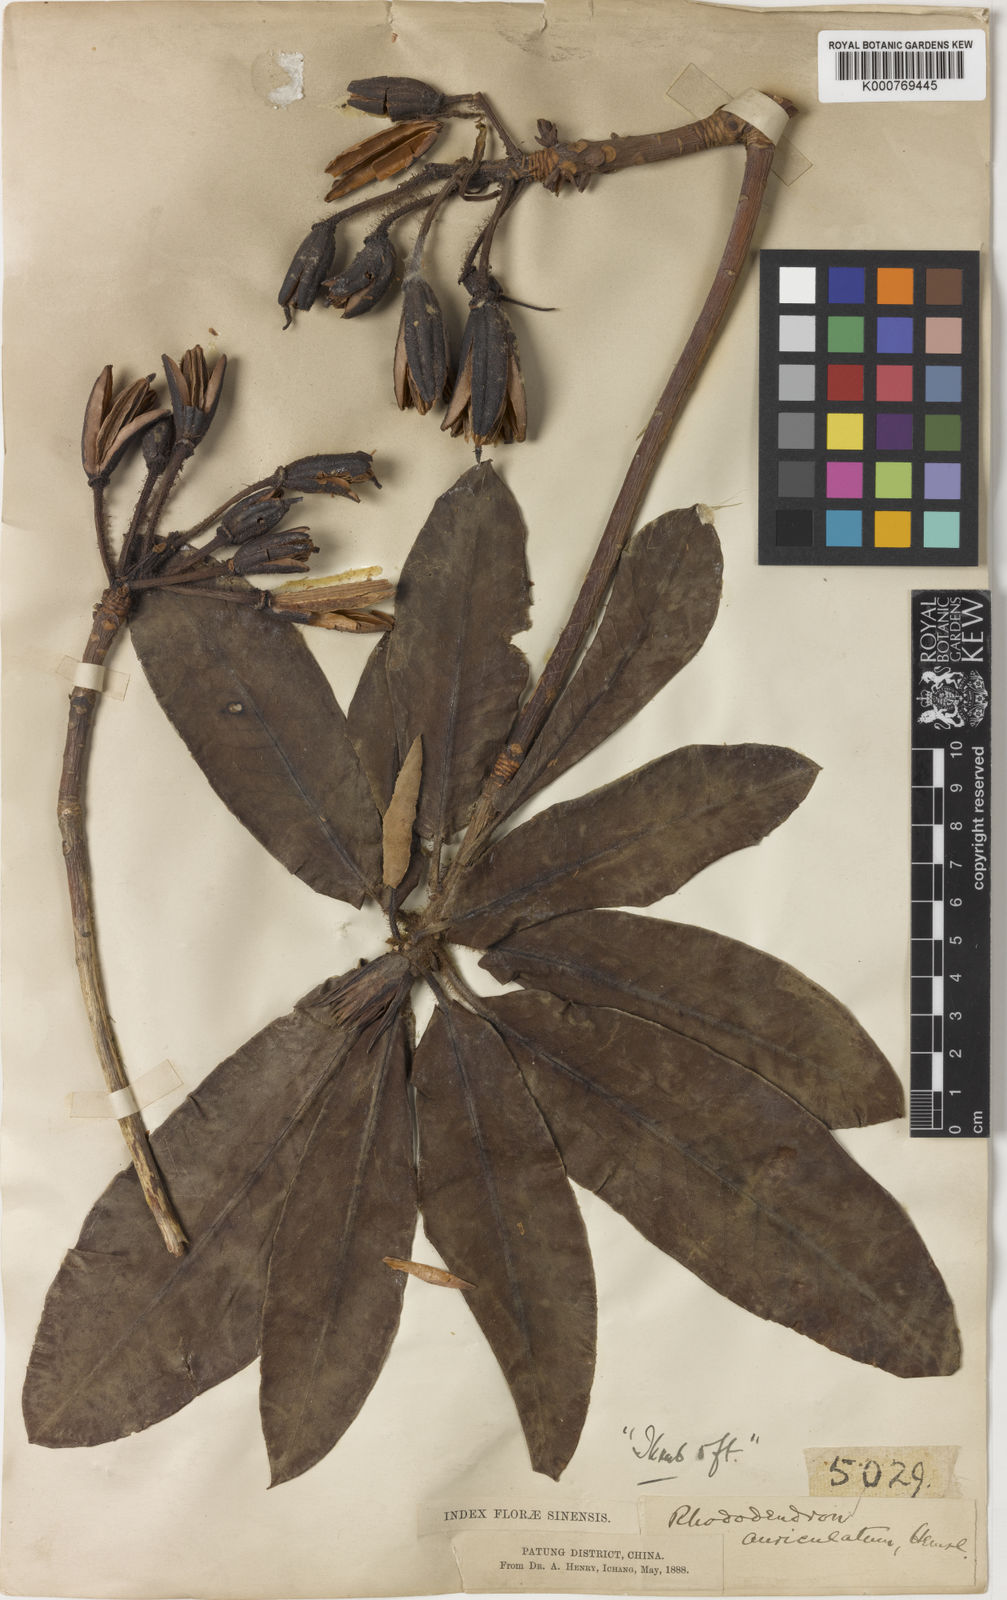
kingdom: Plantae
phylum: Tracheophyta
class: Magnoliopsida
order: Ericales
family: Ericaceae
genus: Rhododendron
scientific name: Rhododendron auriculatum
